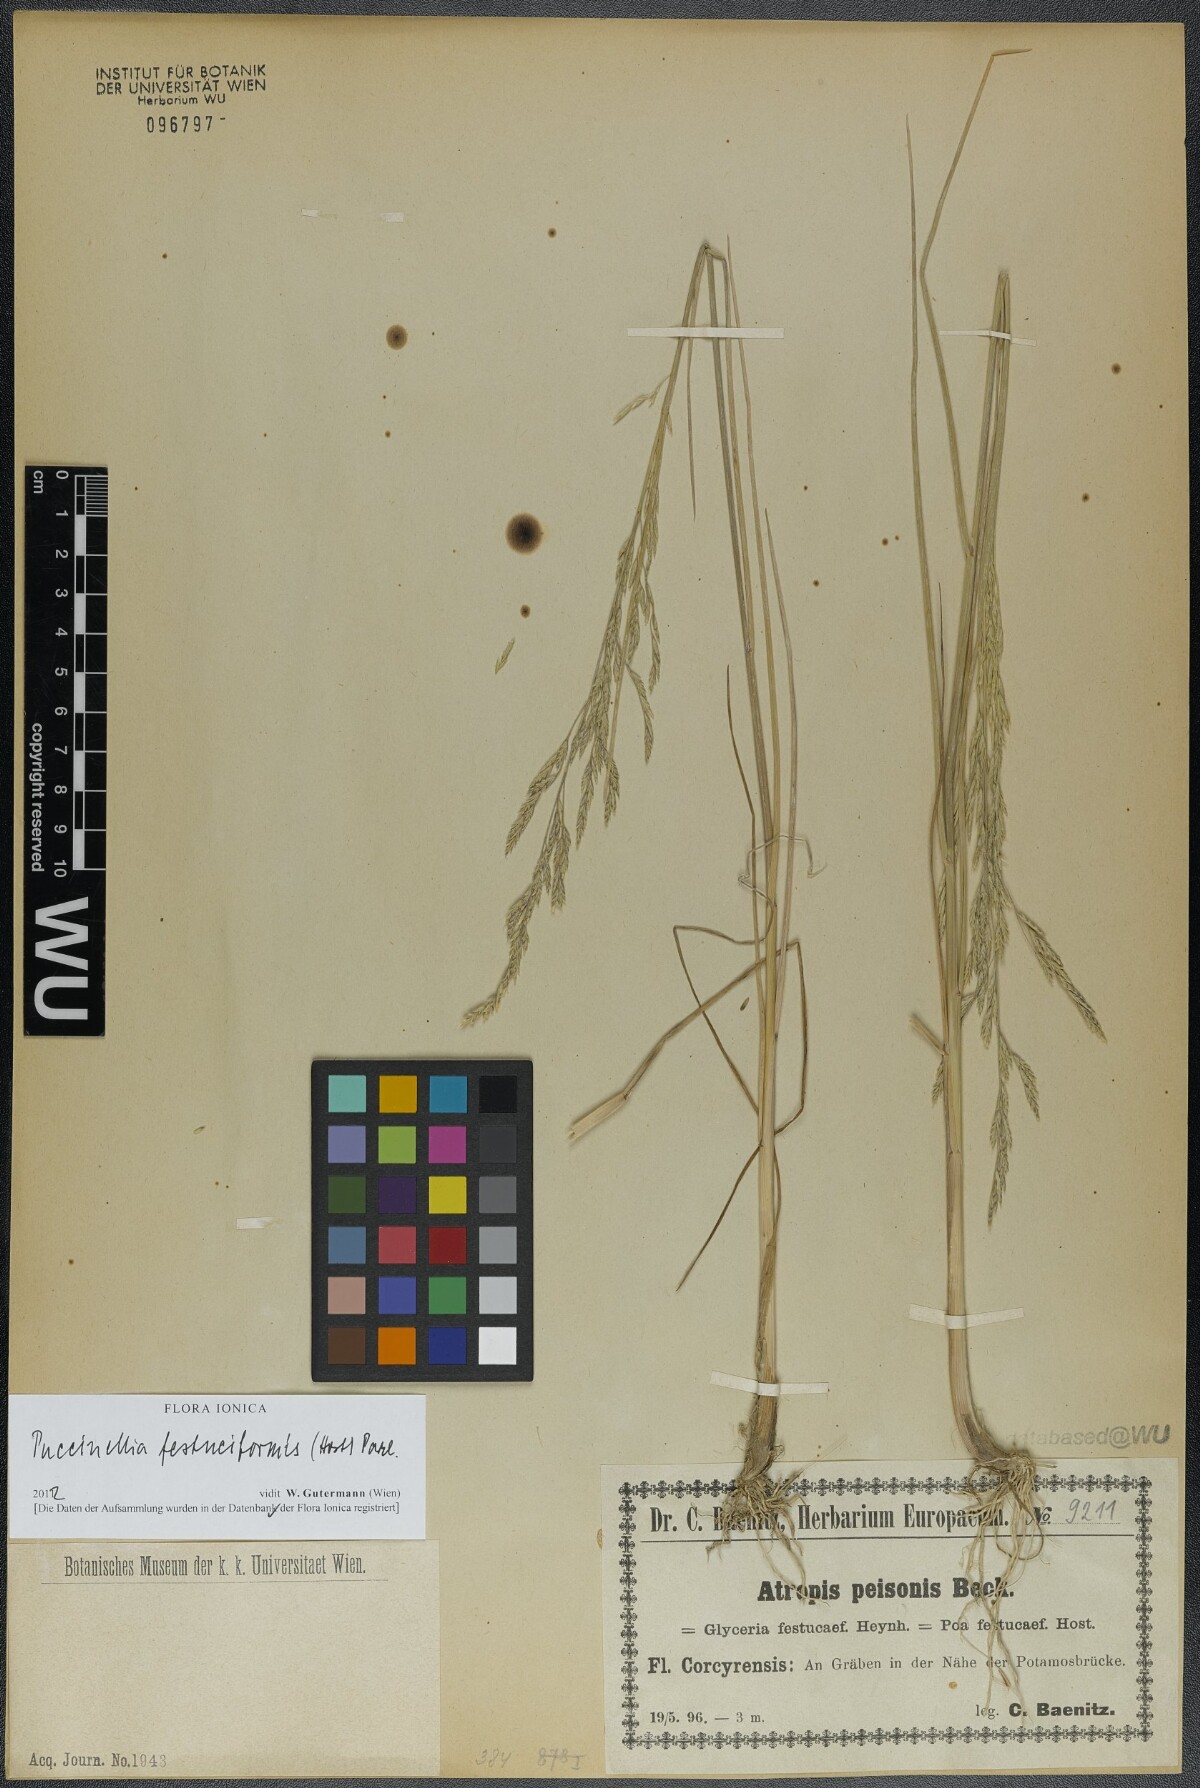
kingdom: Plantae
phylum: Tracheophyta
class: Liliopsida
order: Poales
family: Poaceae
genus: Puccinellia
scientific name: Puccinellia festuciformis
